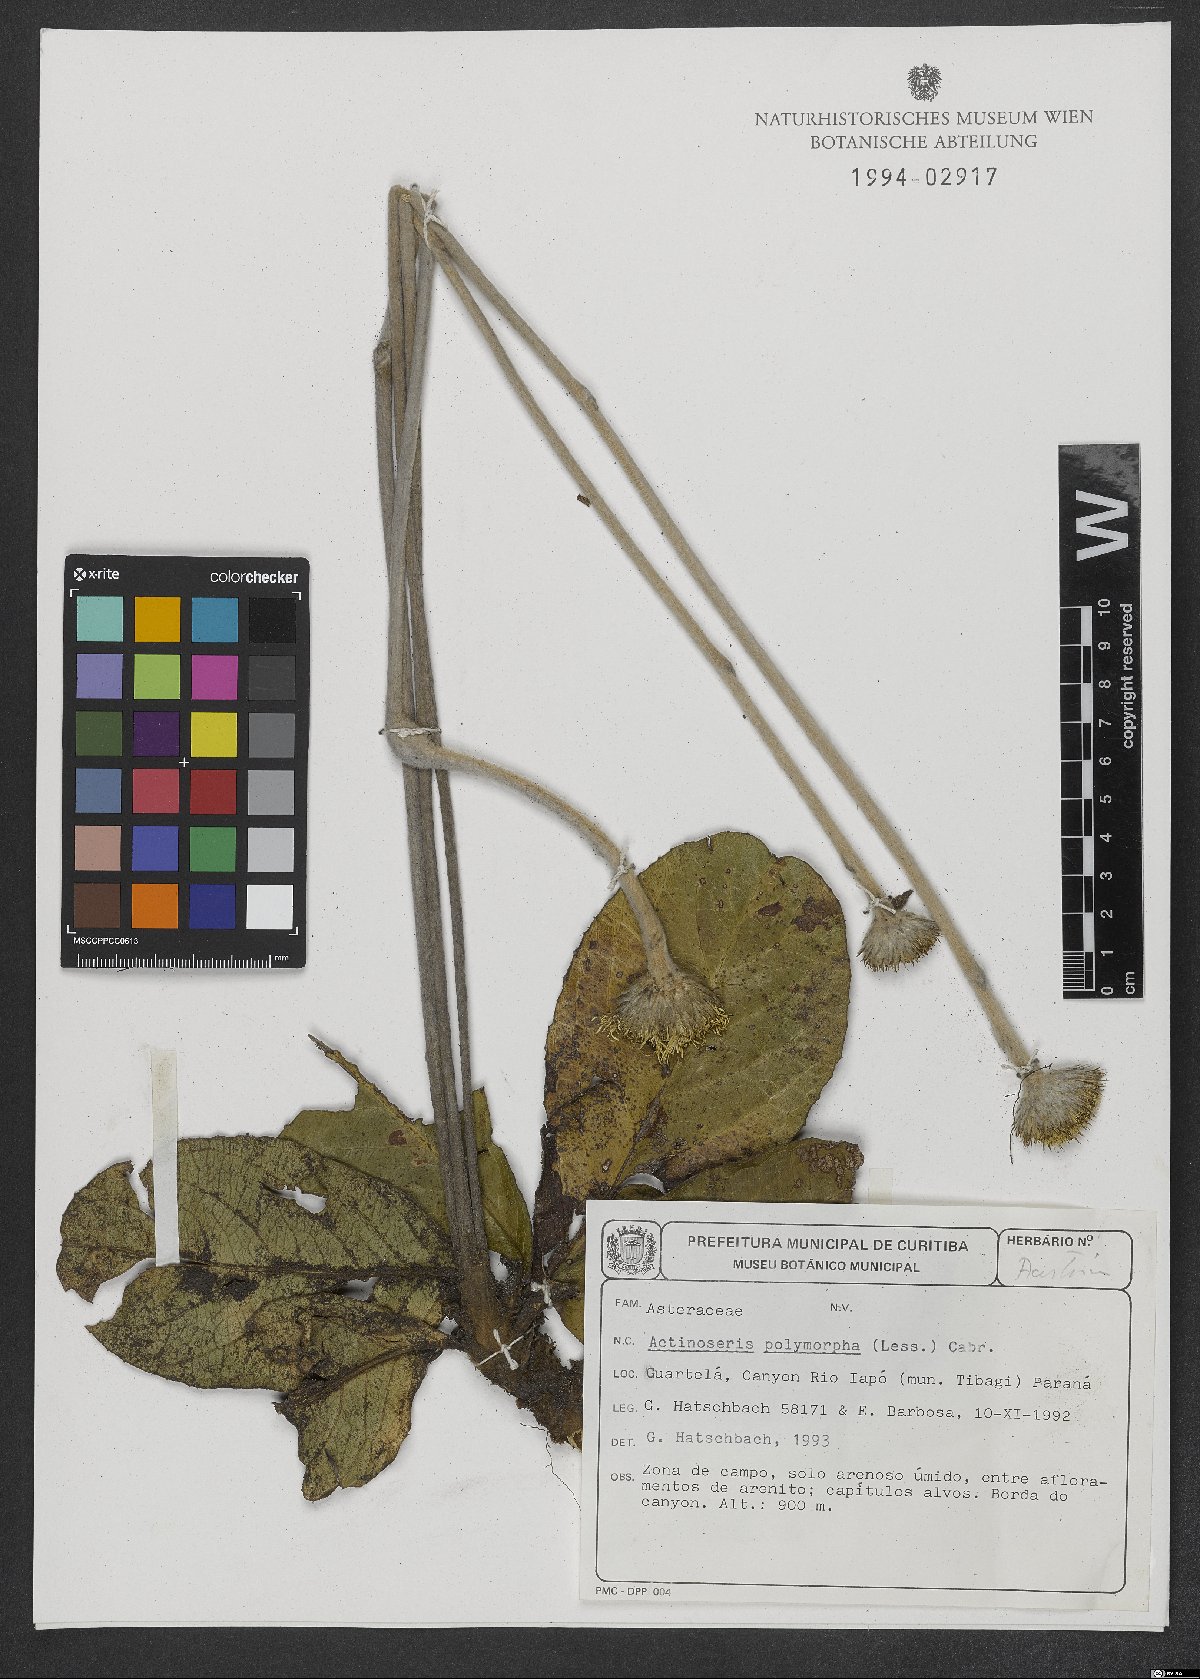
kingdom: Plantae
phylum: Tracheophyta
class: Magnoliopsida
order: Asterales
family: Asteraceae
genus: Richterago
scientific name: Richterago polymorpha
